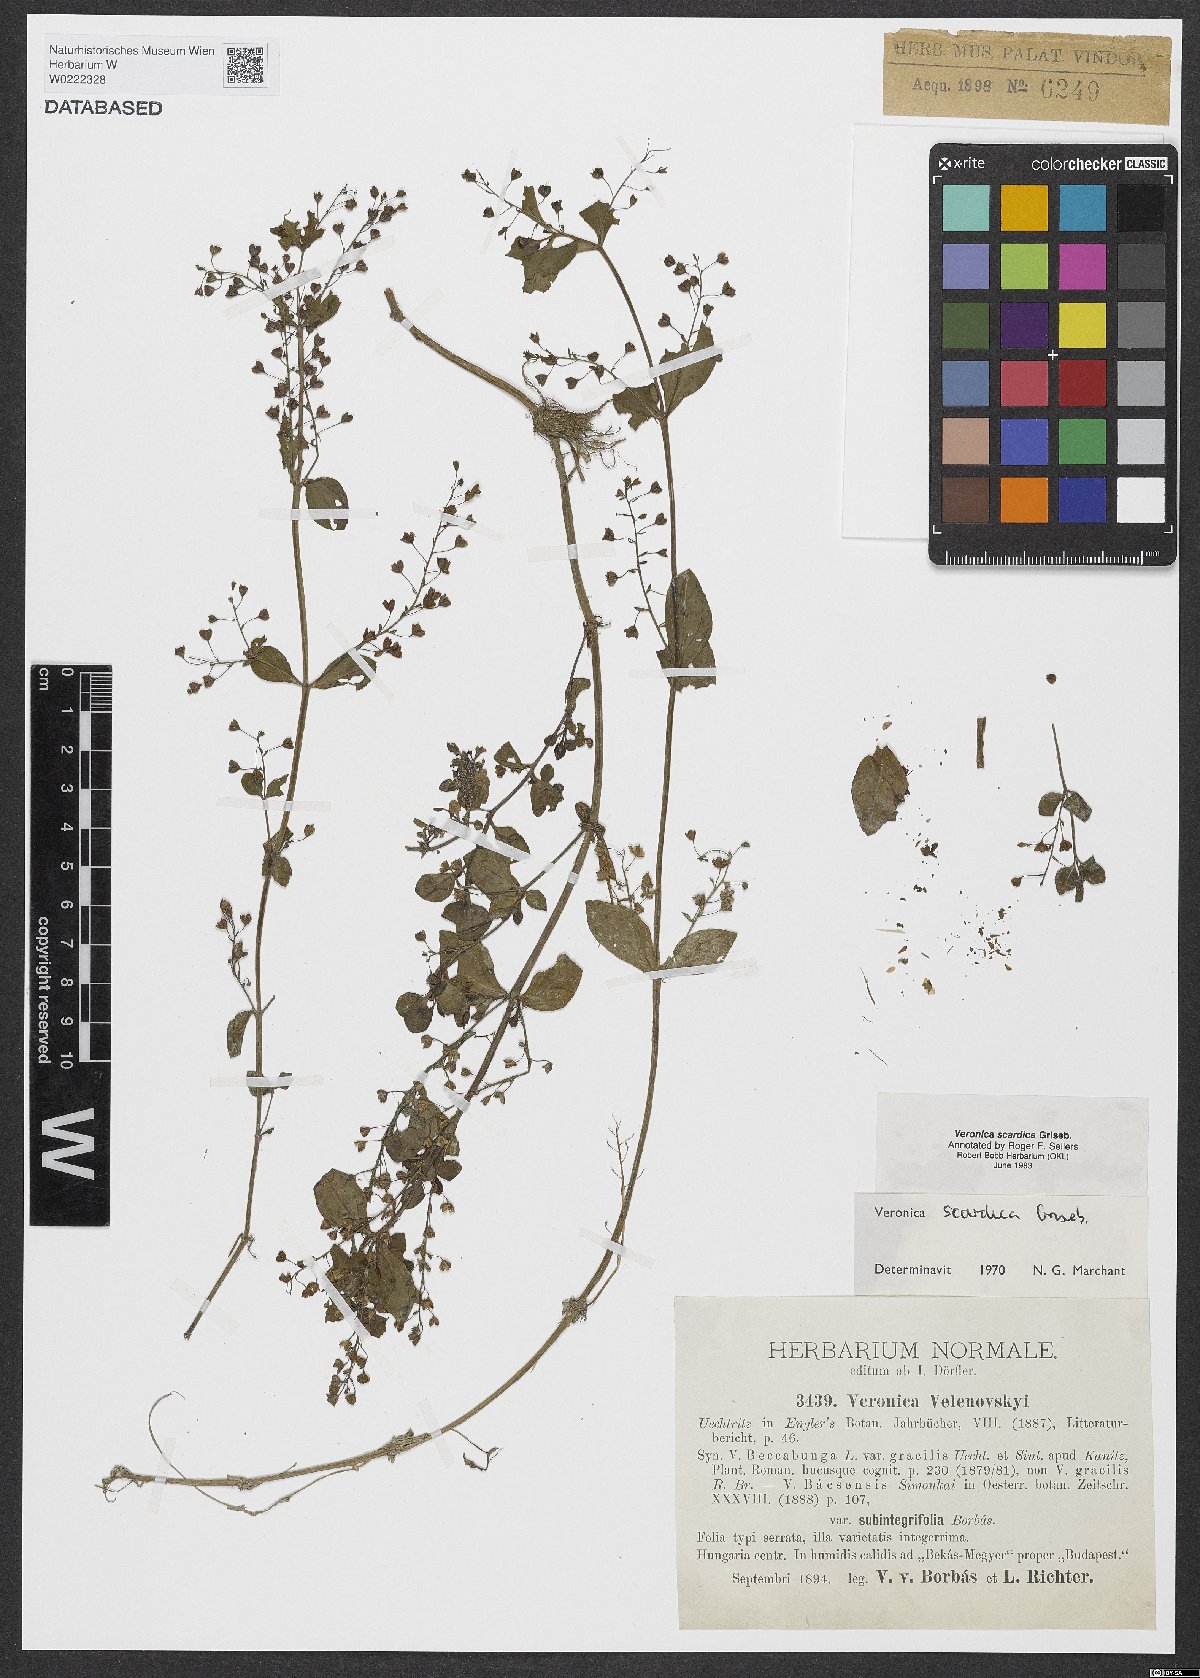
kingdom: Plantae
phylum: Tracheophyta
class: Magnoliopsida
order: Lamiales
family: Plantaginaceae
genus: Veronica
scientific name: Veronica scardica
